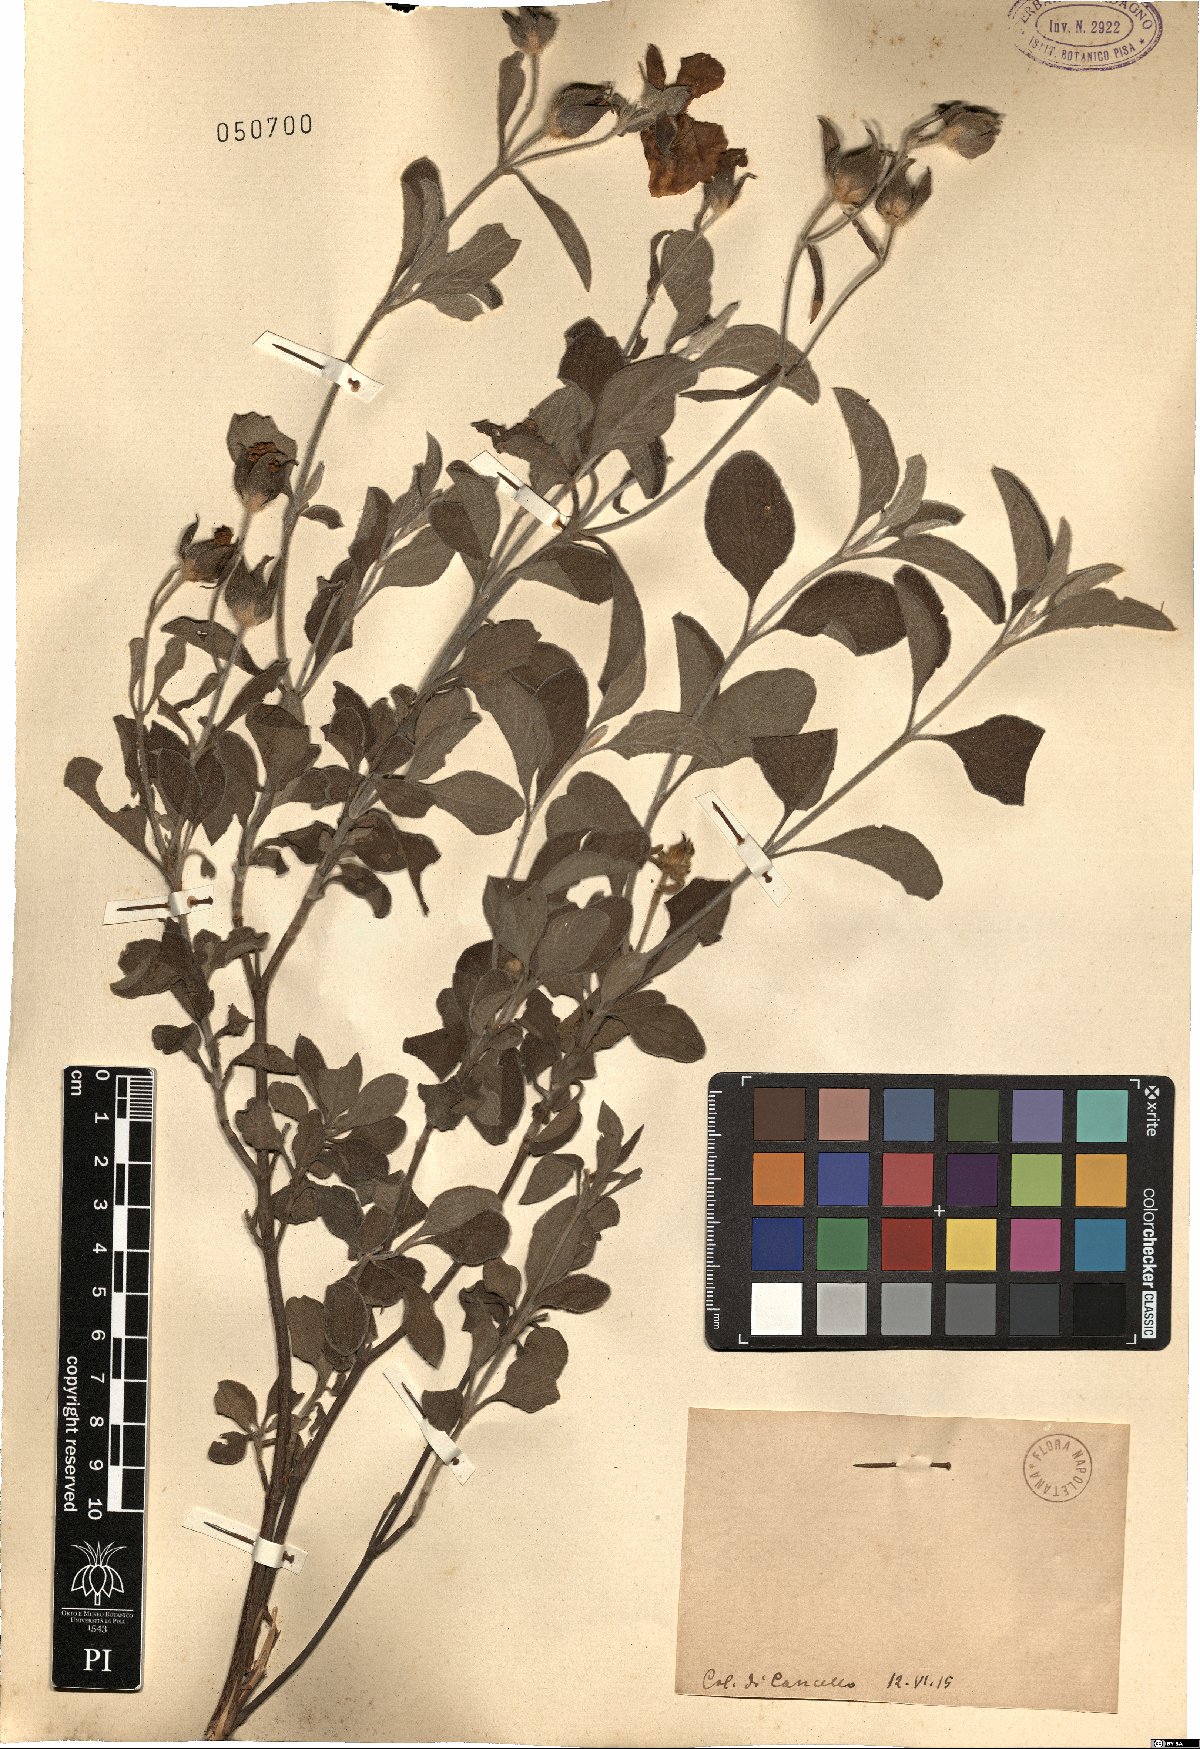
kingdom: Plantae
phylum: Tracheophyta
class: Magnoliopsida
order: Malvales
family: Cistaceae
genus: Cistus
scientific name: Cistus
